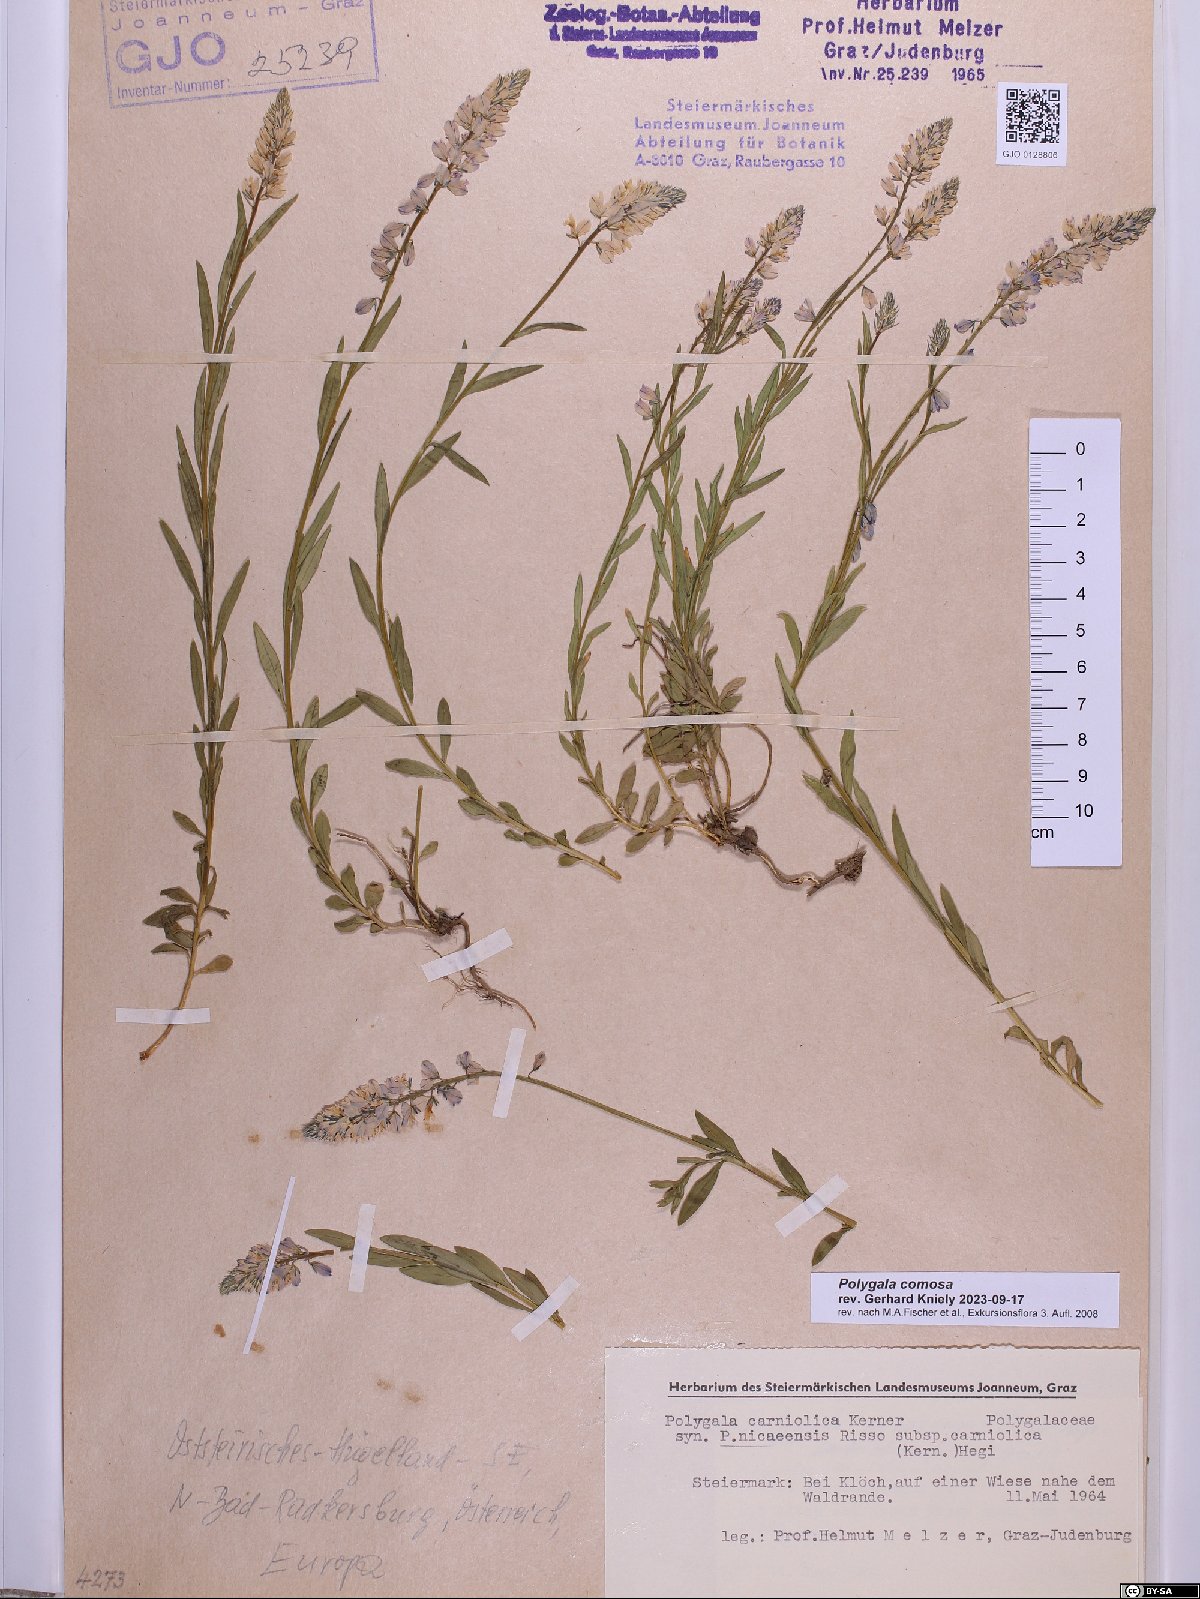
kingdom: Plantae
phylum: Tracheophyta
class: Magnoliopsida
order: Fabales
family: Polygalaceae
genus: Polygala
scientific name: Polygala comosa
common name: Tufted milkwort
